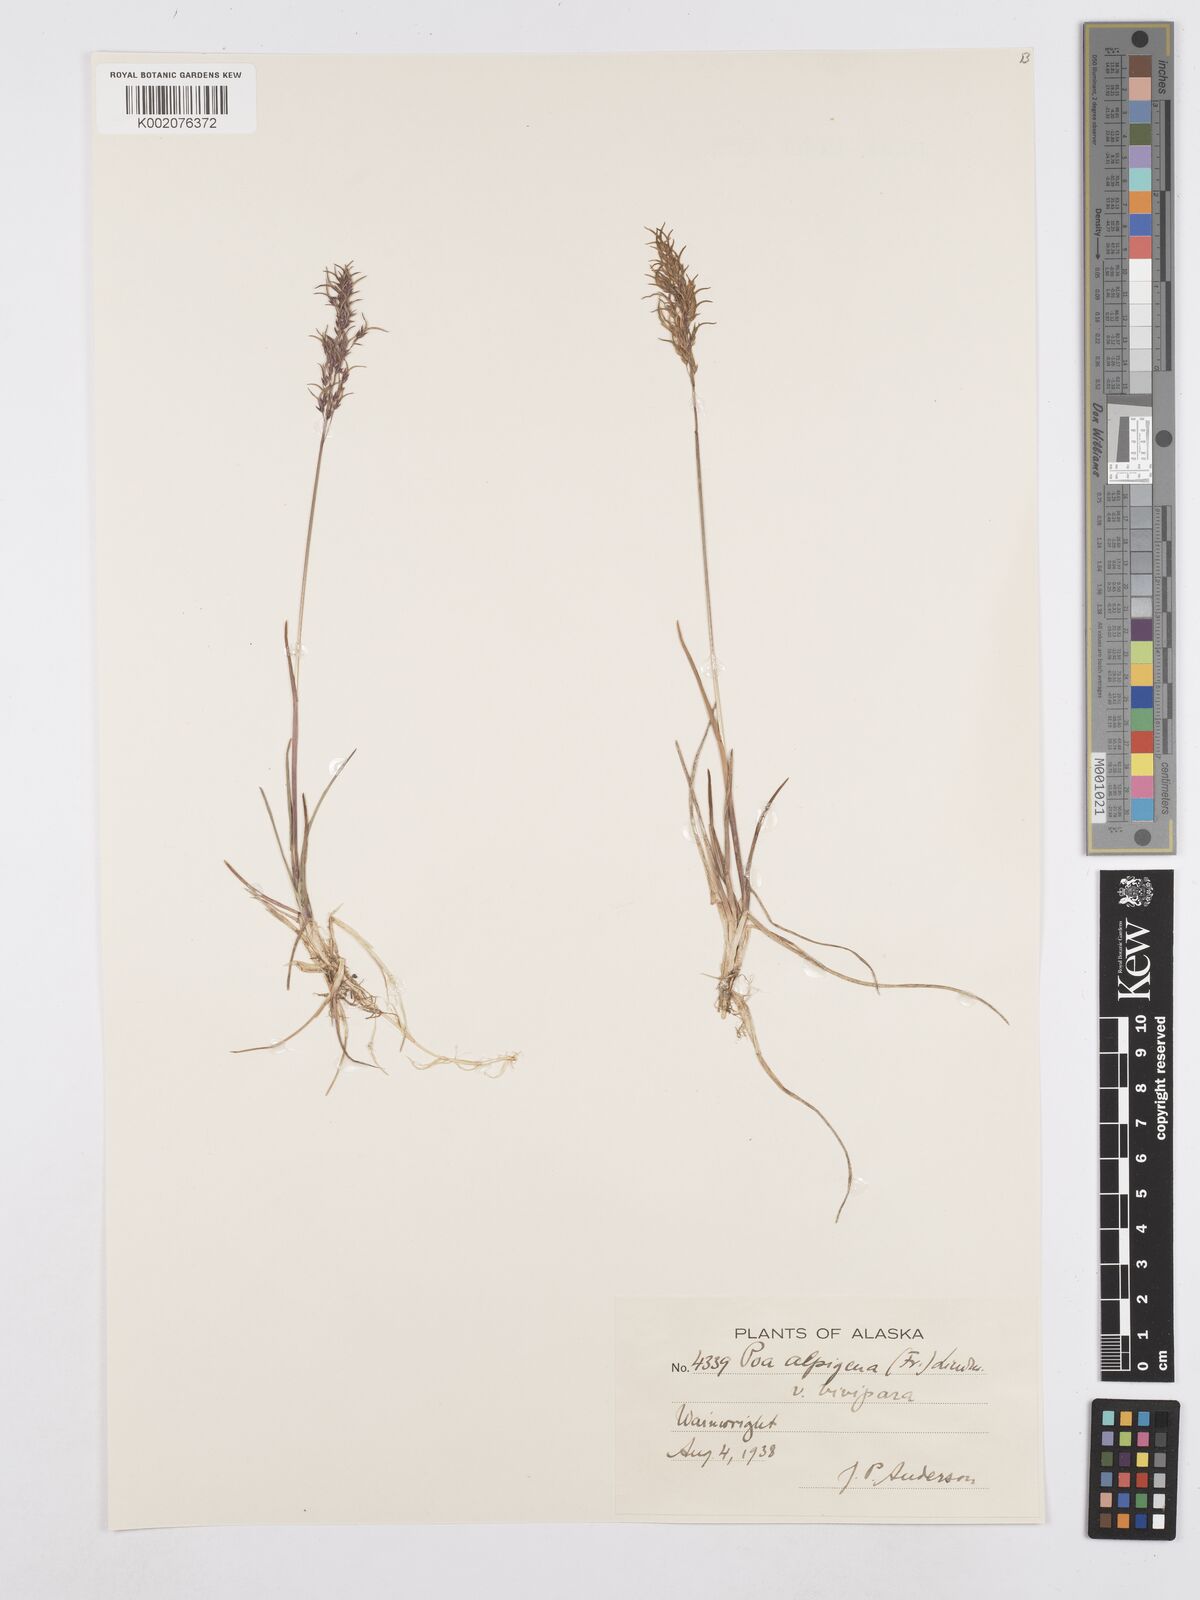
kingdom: Plantae
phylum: Tracheophyta
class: Liliopsida
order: Poales
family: Poaceae
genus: Poa
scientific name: Poa alpigena
